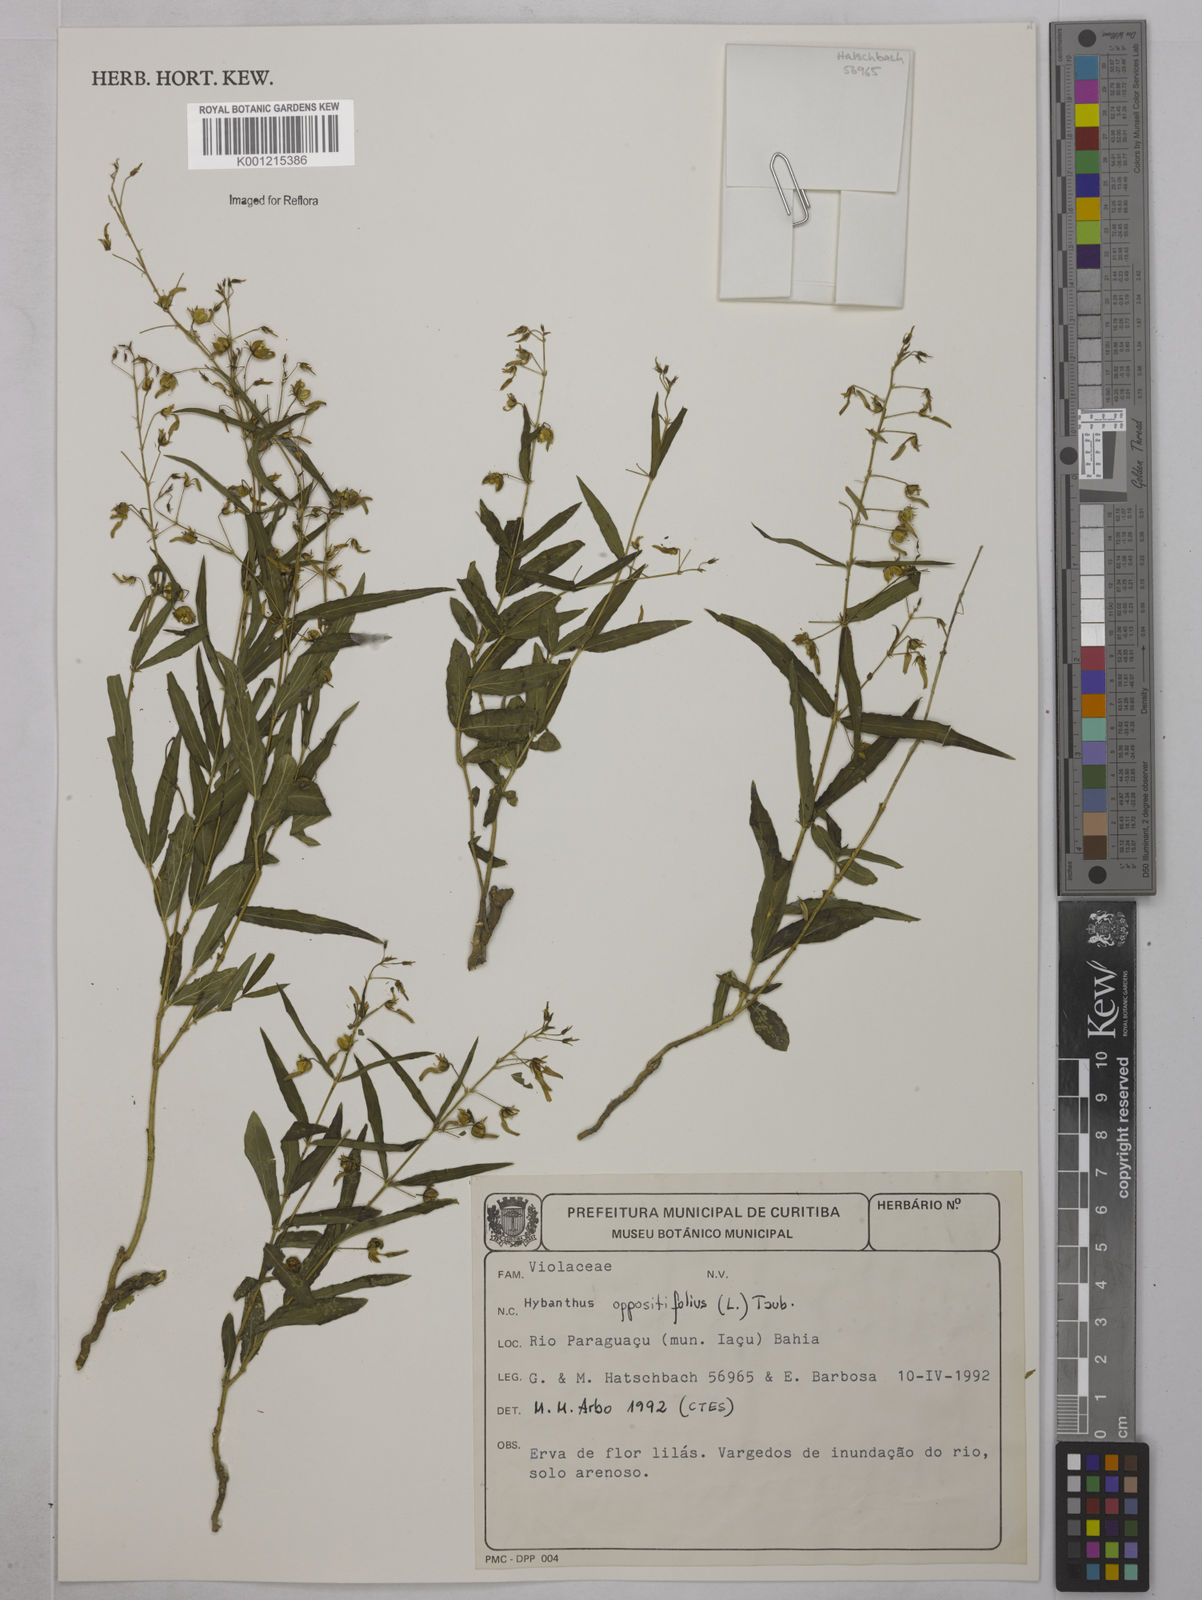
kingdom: Plantae
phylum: Tracheophyta
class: Magnoliopsida
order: Malpighiales
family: Violaceae
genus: Pombalia
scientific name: Pombalia oppositifolia
